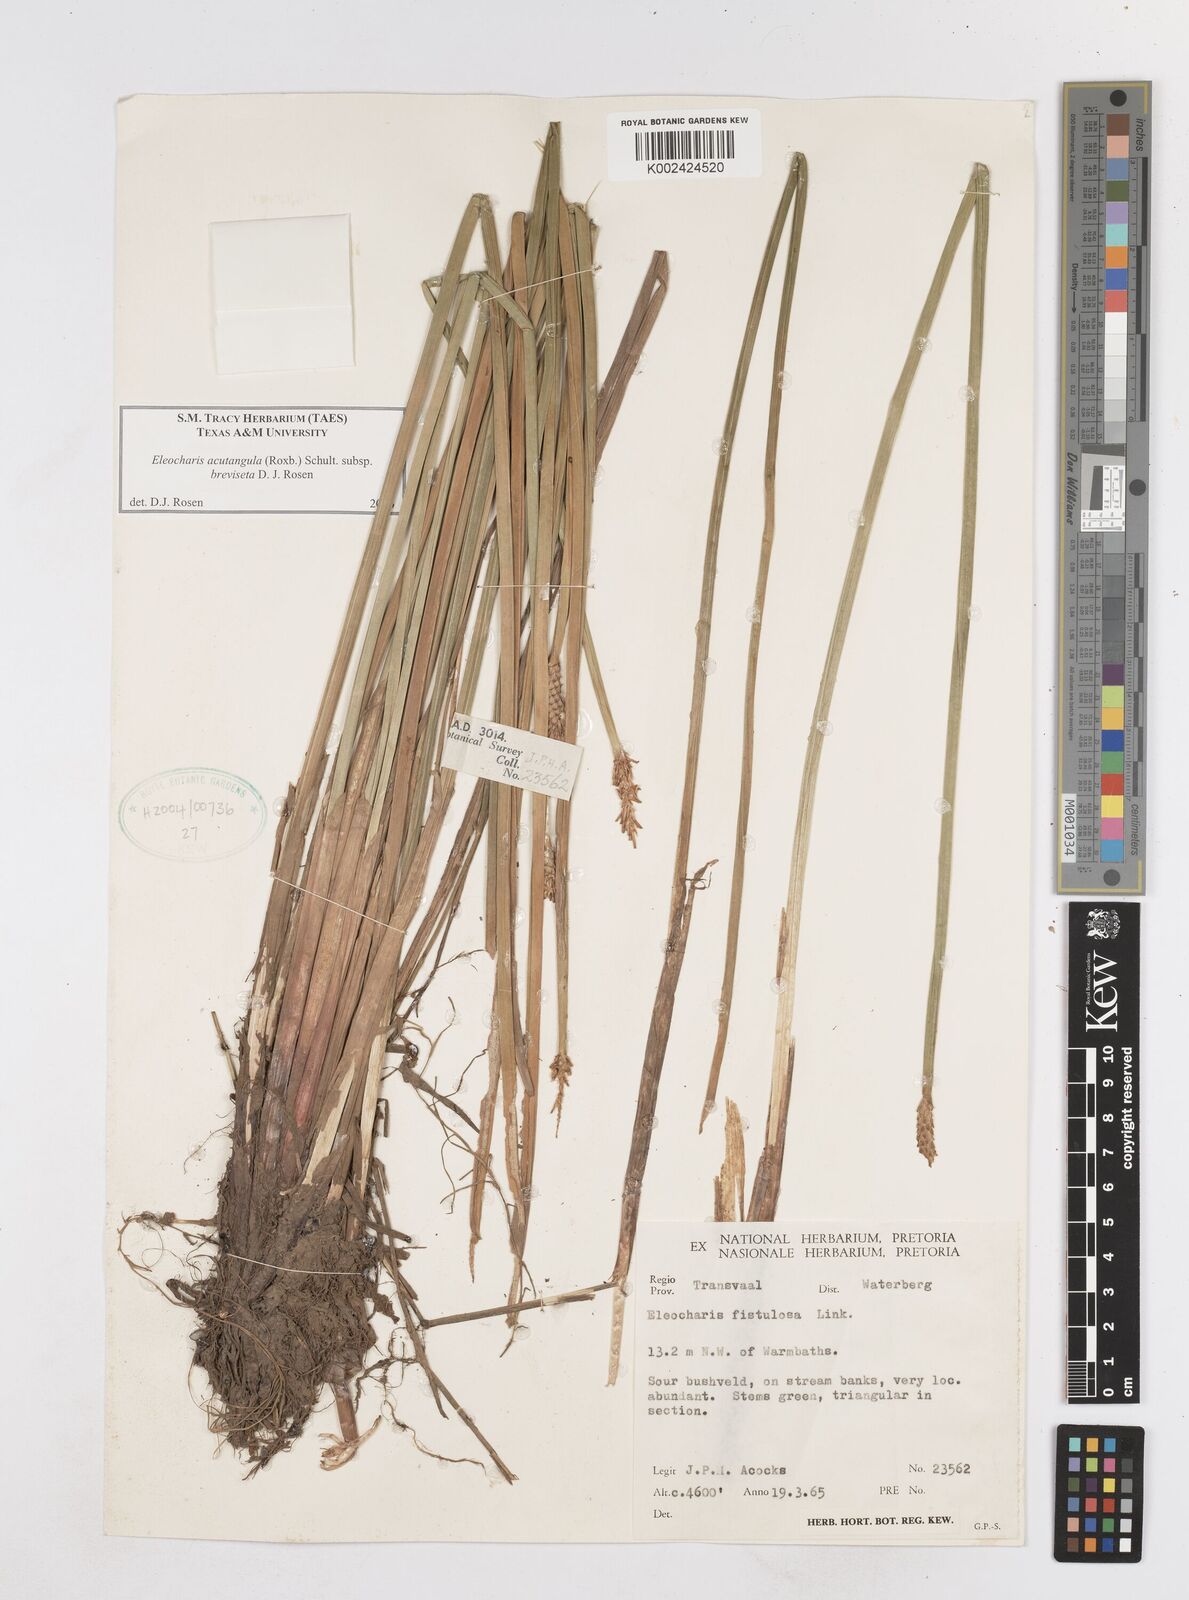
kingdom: Plantae
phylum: Tracheophyta
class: Liliopsida
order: Poales
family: Cyperaceae
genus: Eleocharis
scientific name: Eleocharis acutangula
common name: Acute spikerush
